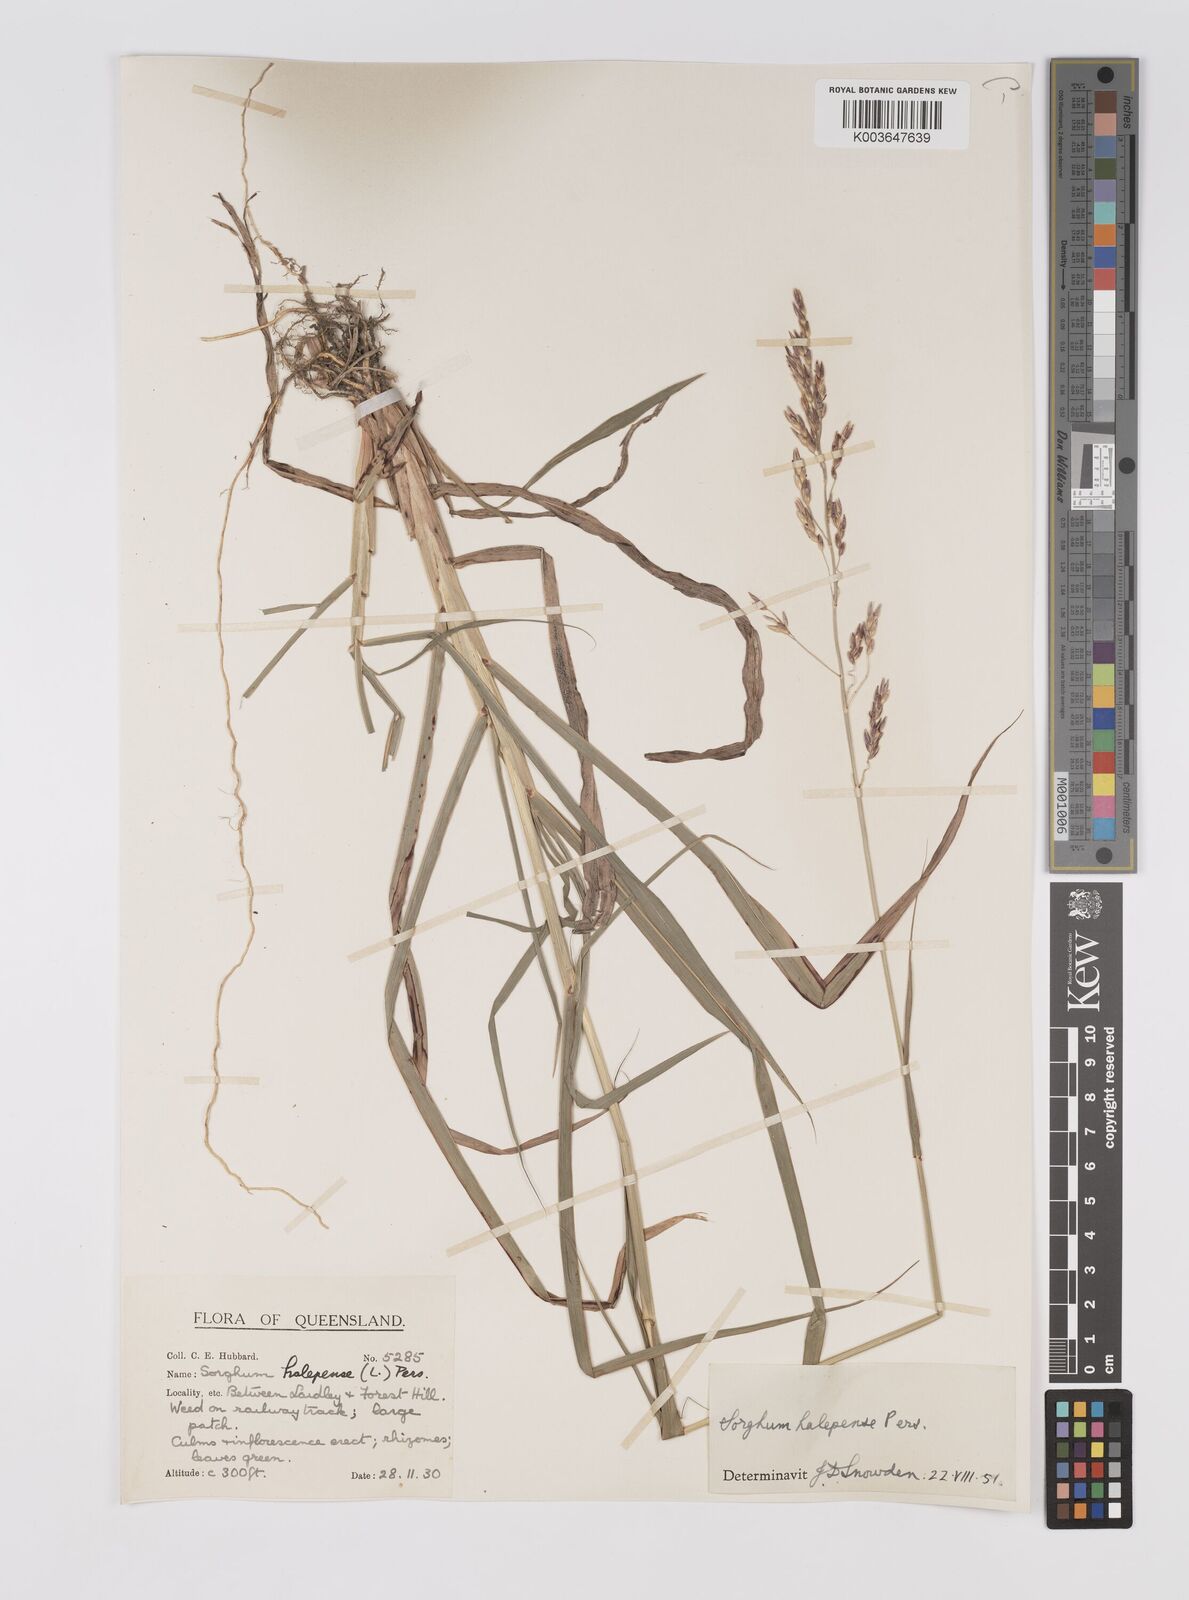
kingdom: Plantae
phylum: Tracheophyta
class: Liliopsida
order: Poales
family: Poaceae
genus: Sorghum
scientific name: Sorghum halepense
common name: Johnson-grass
